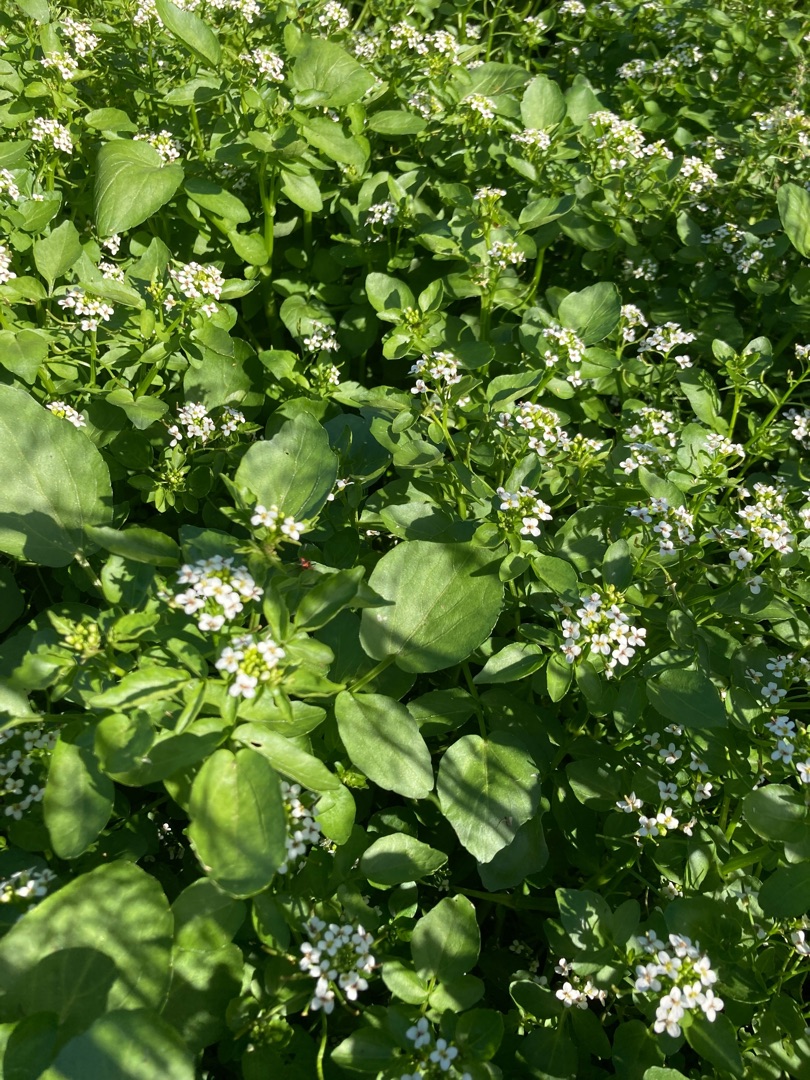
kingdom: Plantae
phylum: Tracheophyta
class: Magnoliopsida
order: Brassicales
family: Brassicaceae
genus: Nasturtium
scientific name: Nasturtium officinale
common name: Tykskulpet brøndkarse
